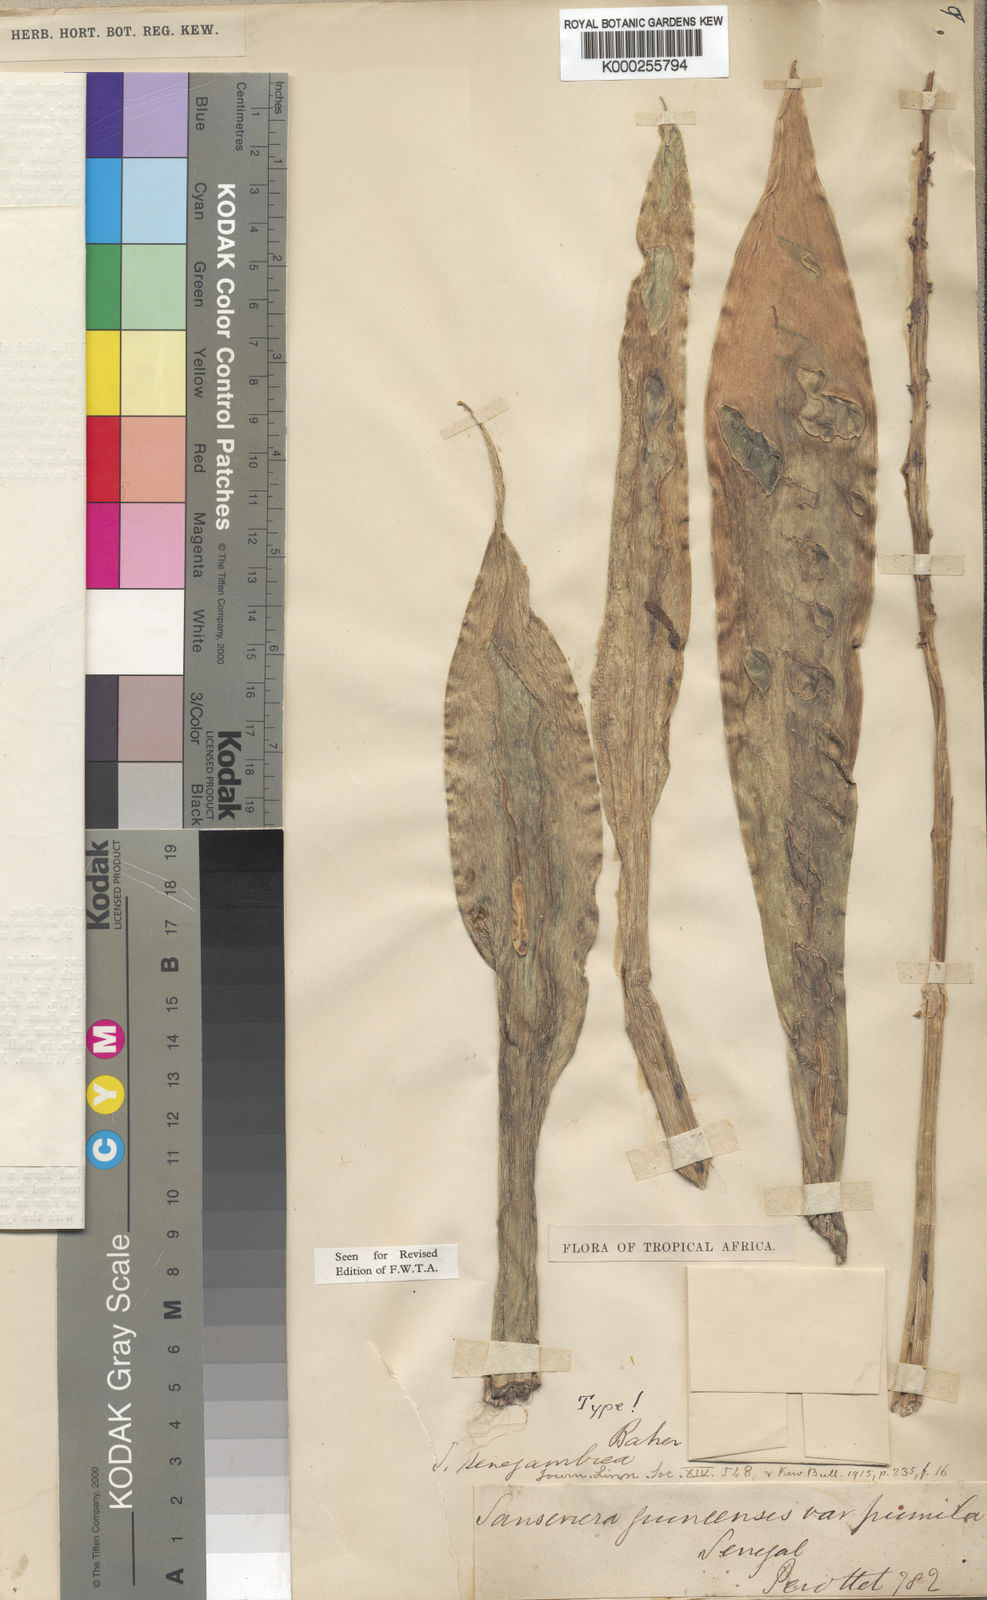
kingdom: Plantae
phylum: Tracheophyta
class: Liliopsida
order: Asparagales
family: Asparagaceae
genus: Dracaena
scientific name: Dracaena senegambica
